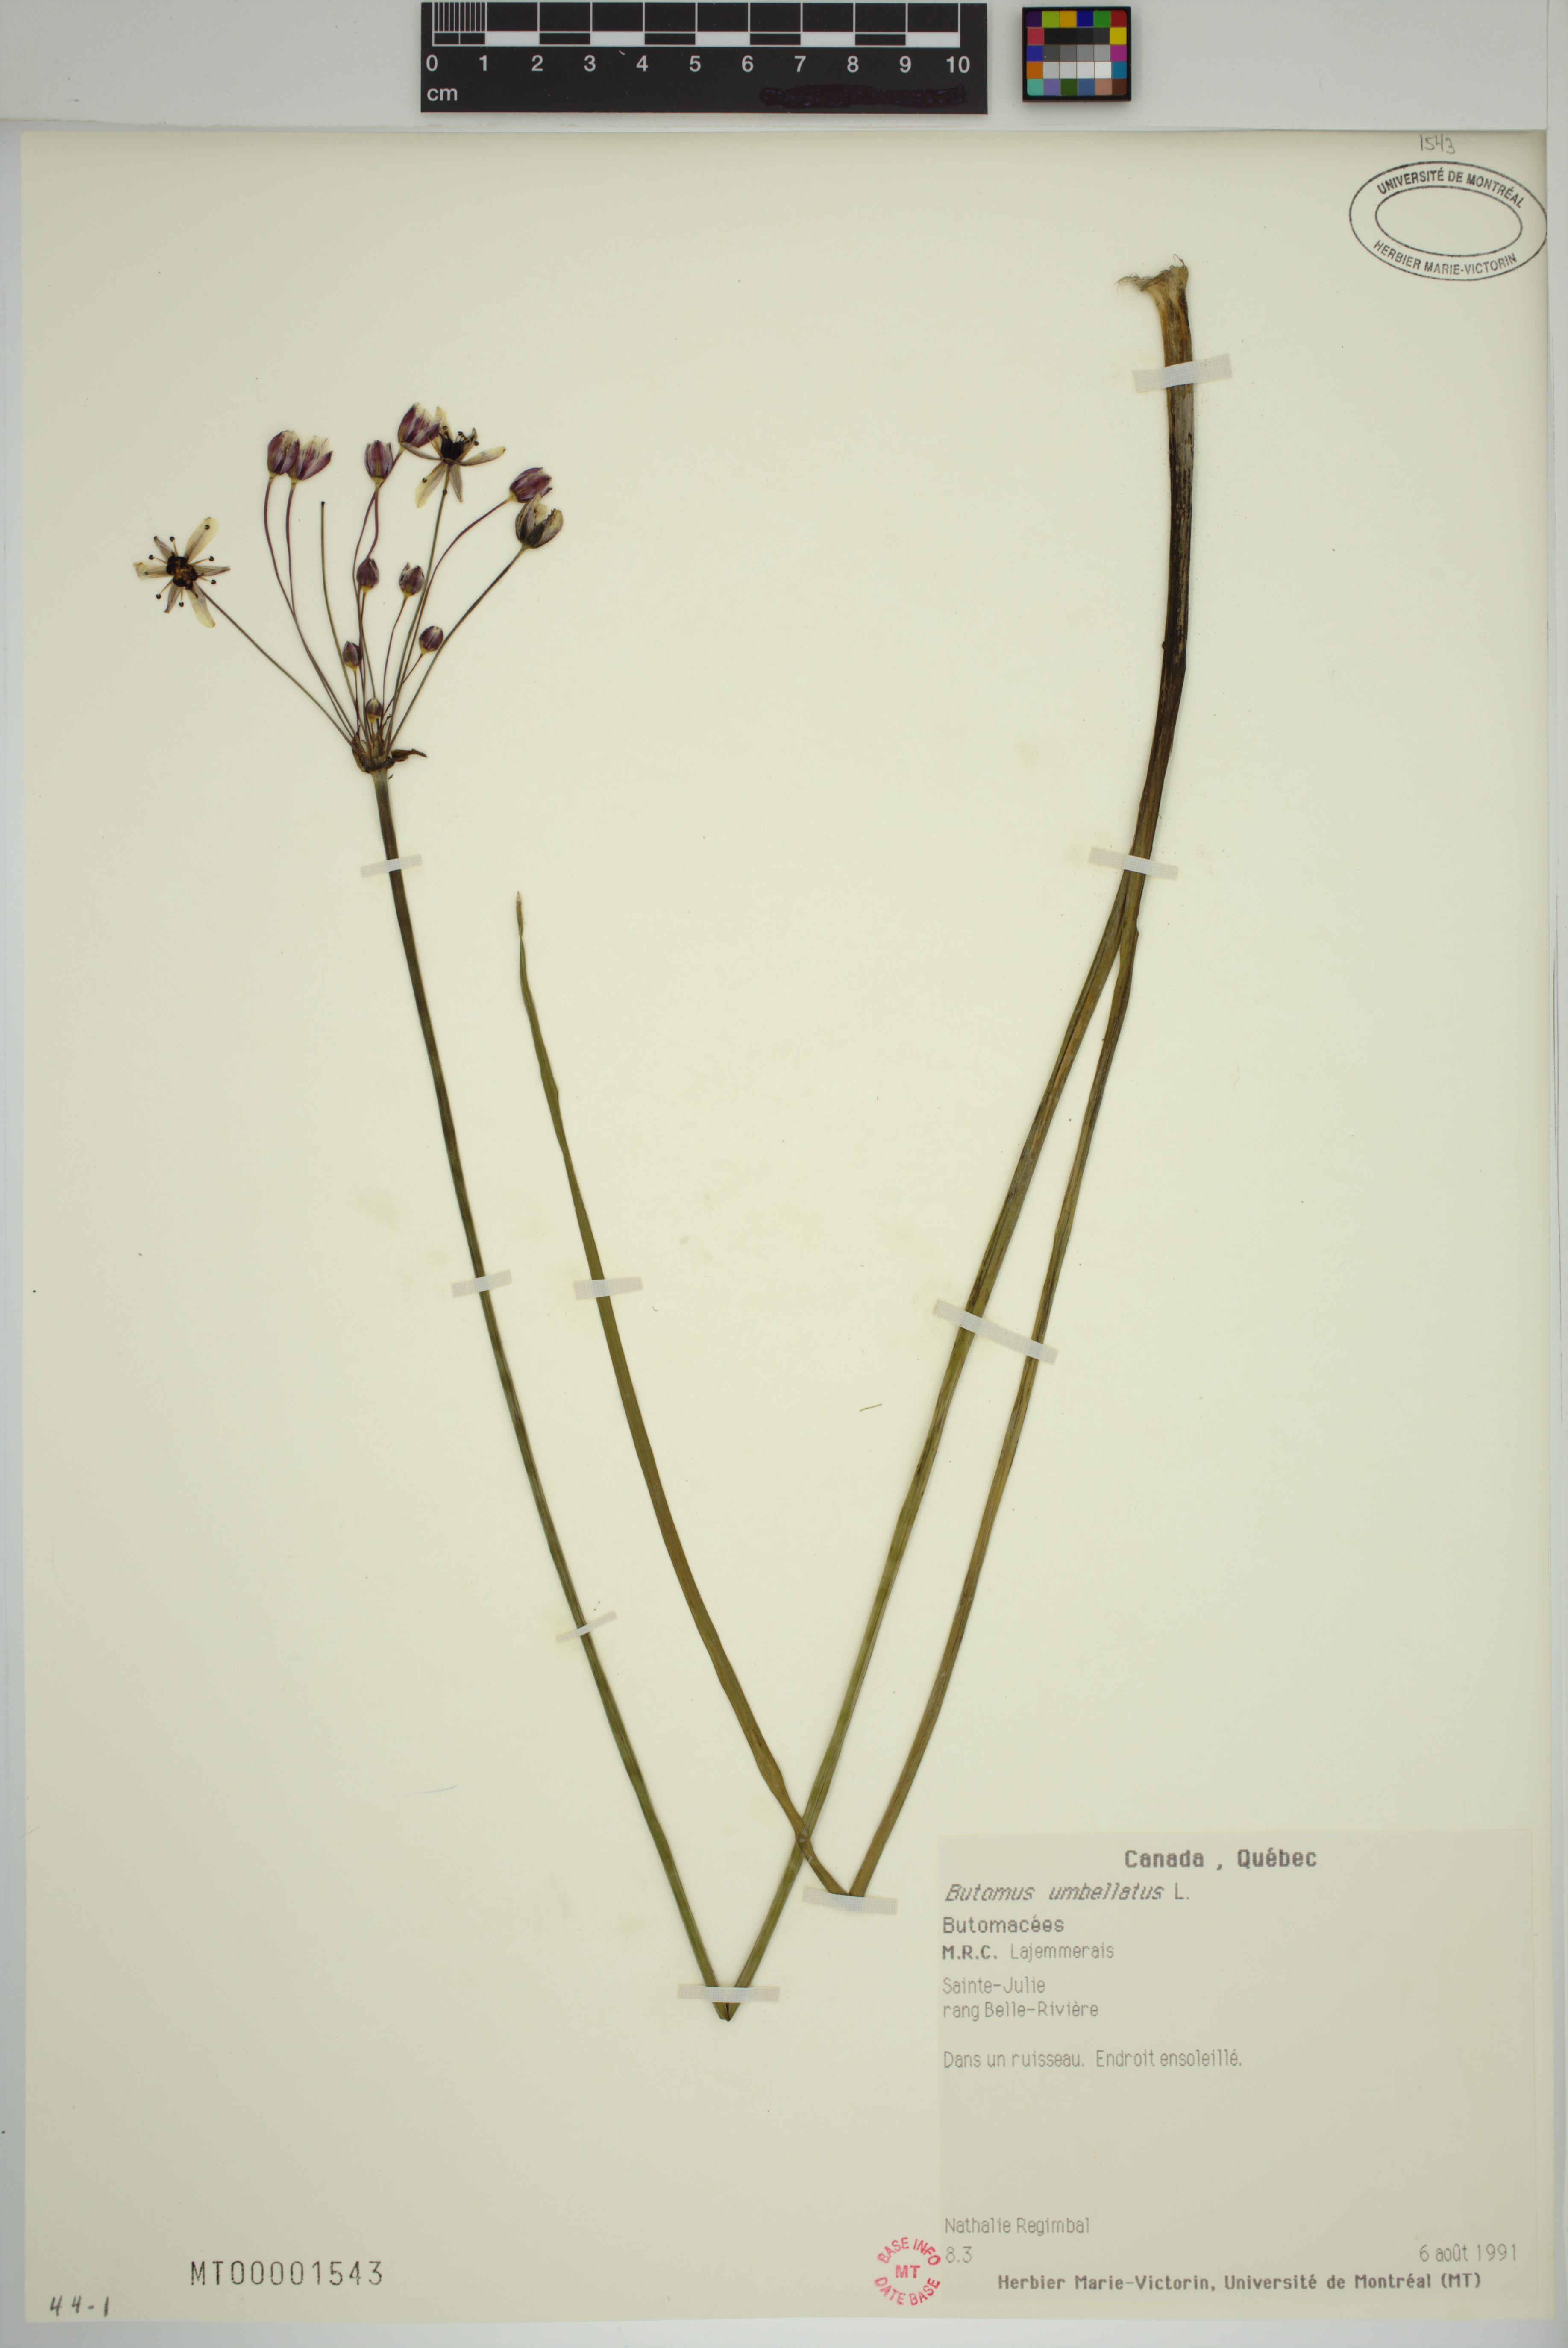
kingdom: Plantae
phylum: Tracheophyta
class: Liliopsida
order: Alismatales
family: Butomaceae
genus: Butomus
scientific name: Butomus umbellatus
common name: Flowering-rush
